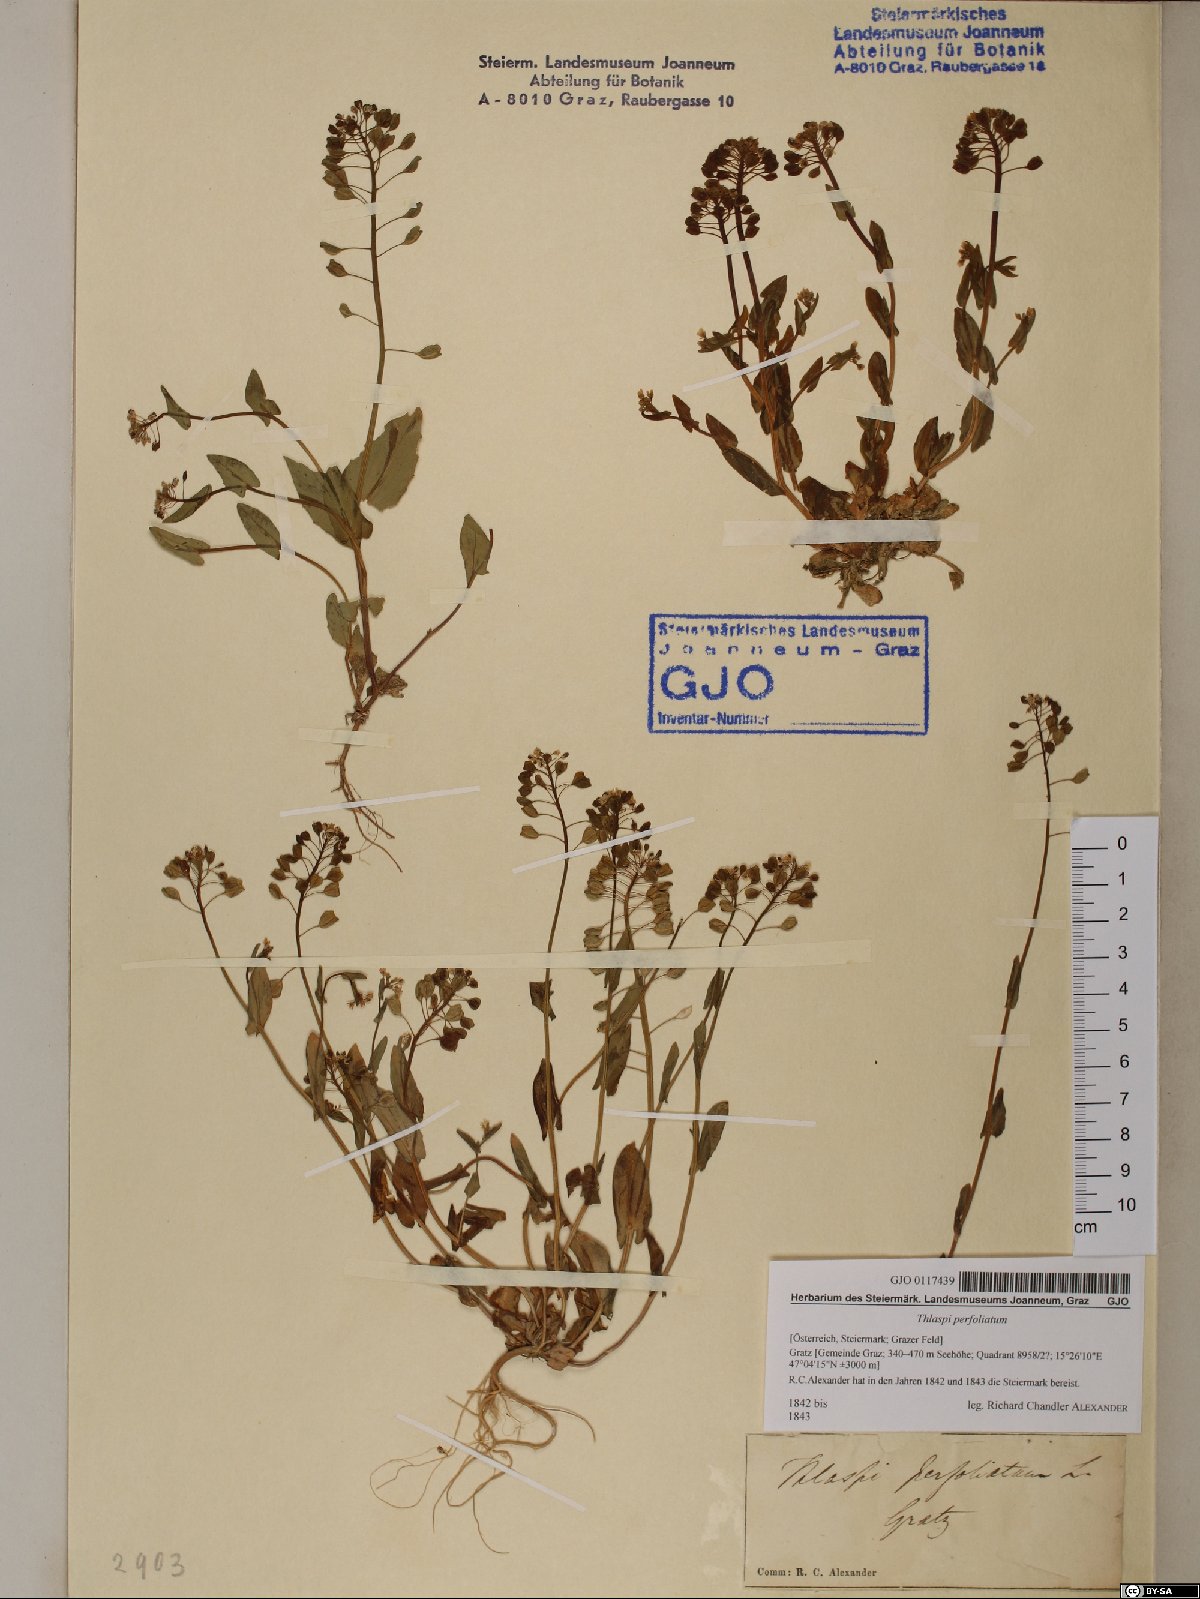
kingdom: Plantae
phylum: Tracheophyta
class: Magnoliopsida
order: Brassicales
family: Brassicaceae
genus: Noccaea
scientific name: Noccaea perfoliata
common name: Perfoliate pennycress
